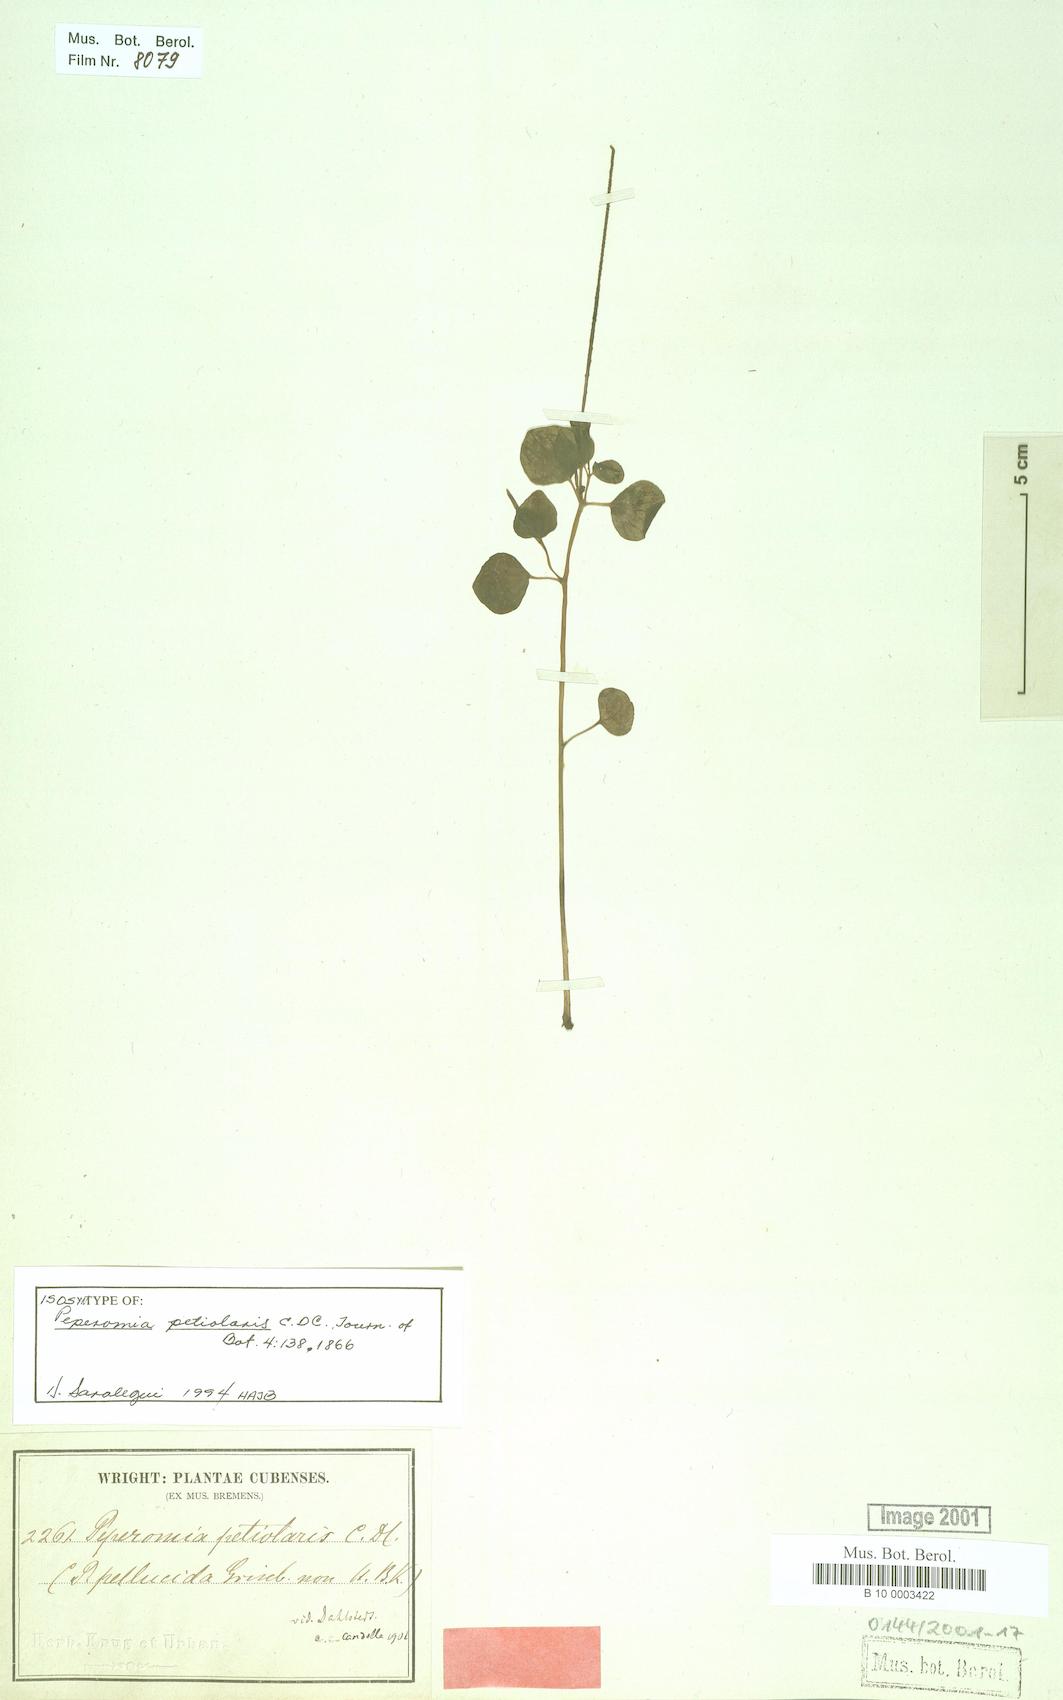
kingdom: Plantae
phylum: Tracheophyta
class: Magnoliopsida
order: Piperales
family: Piperaceae
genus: Peperomia
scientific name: Peperomia petiolaris
